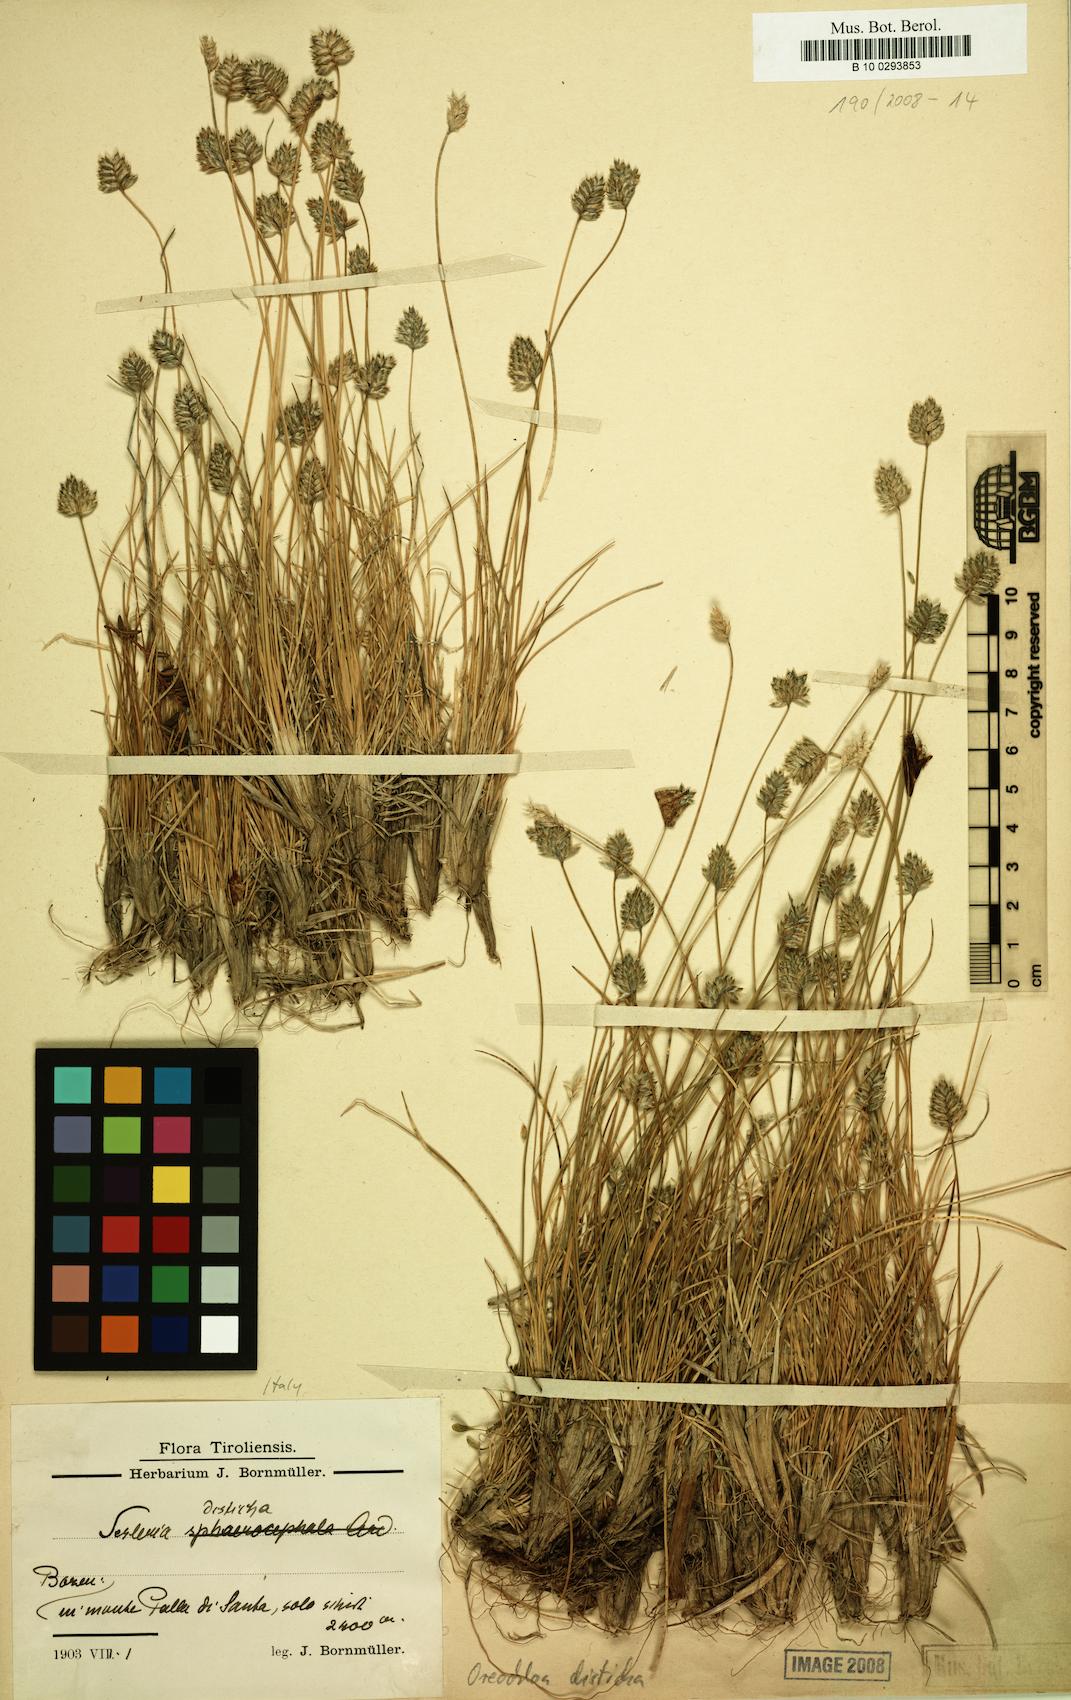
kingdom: Plantae
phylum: Tracheophyta
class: Liliopsida
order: Poales
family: Poaceae
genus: Oreochloa
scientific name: Oreochloa disticha
